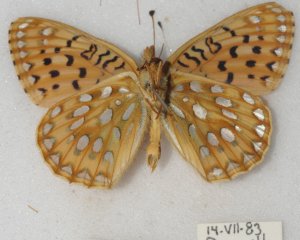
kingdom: Animalia
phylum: Arthropoda
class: Insecta
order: Lepidoptera
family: Nymphalidae
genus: Speyeria
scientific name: Speyeria mormonia
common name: Mormon Fritillary
